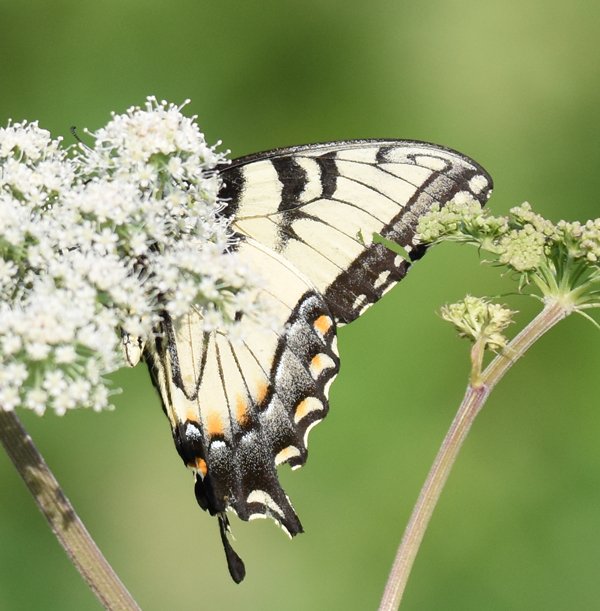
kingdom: Animalia
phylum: Arthropoda
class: Insecta
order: Lepidoptera
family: Papilionidae
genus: Pterourus
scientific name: Pterourus glaucus
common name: Eastern Tiger Swallowtail
